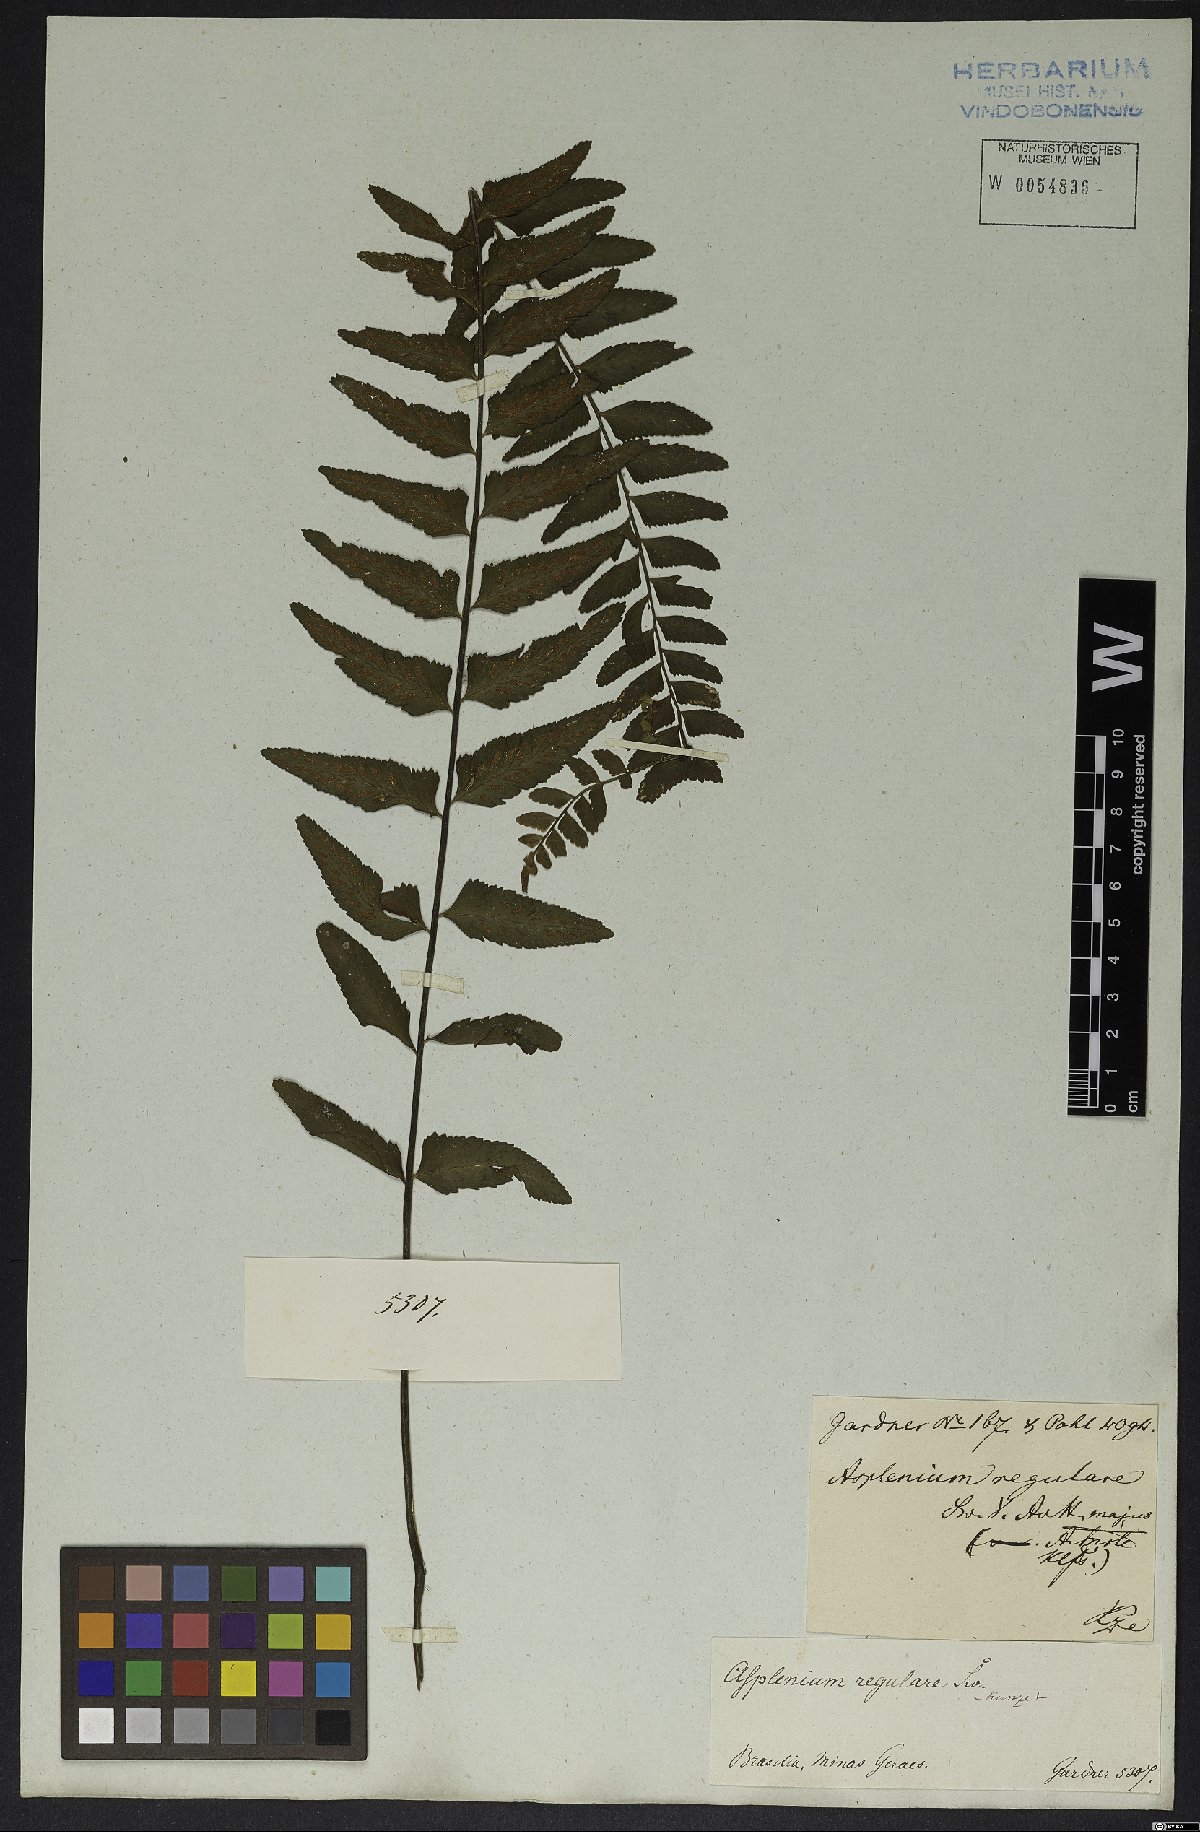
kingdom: Plantae
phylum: Tracheophyta
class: Polypodiopsida
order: Polypodiales
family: Aspleniaceae
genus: Asplenium
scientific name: Asplenium regulare
